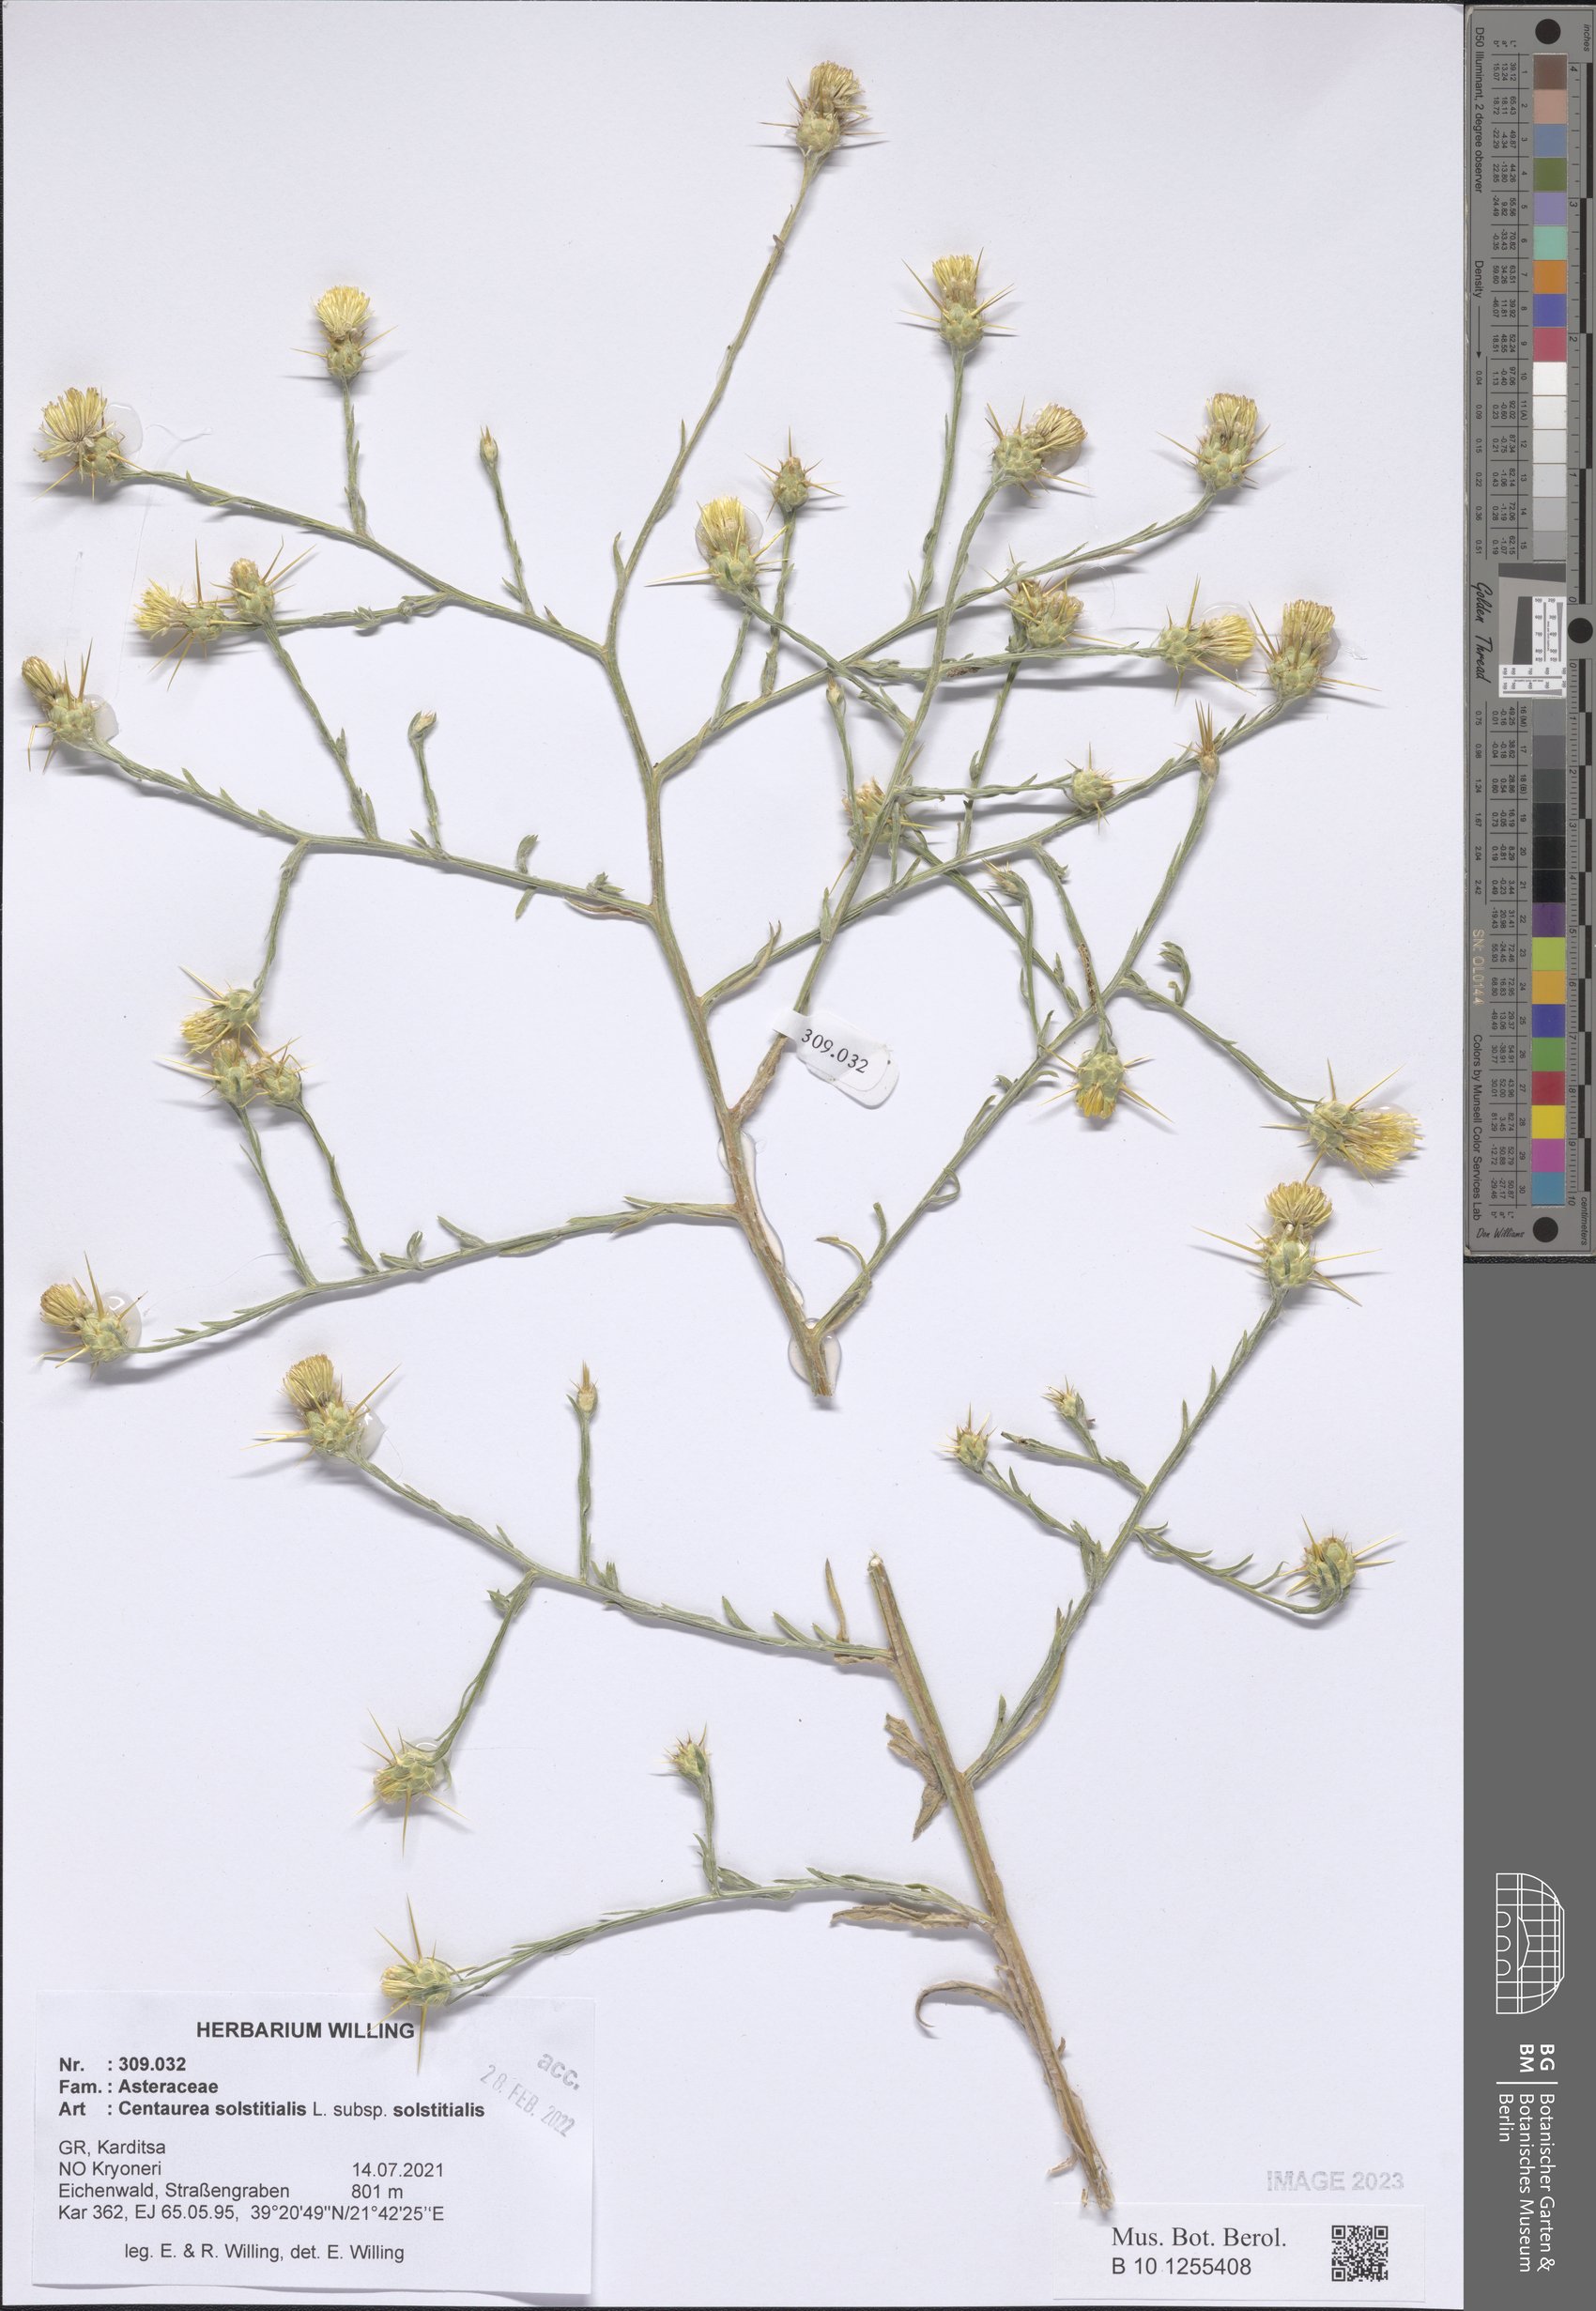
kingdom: Plantae
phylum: Tracheophyta
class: Magnoliopsida
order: Asterales
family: Asteraceae
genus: Centaurea
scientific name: Centaurea solstitialis
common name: Yellow star-thistle
